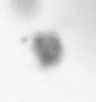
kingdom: Animalia
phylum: Annelida
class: Polychaeta
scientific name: Polychaeta
